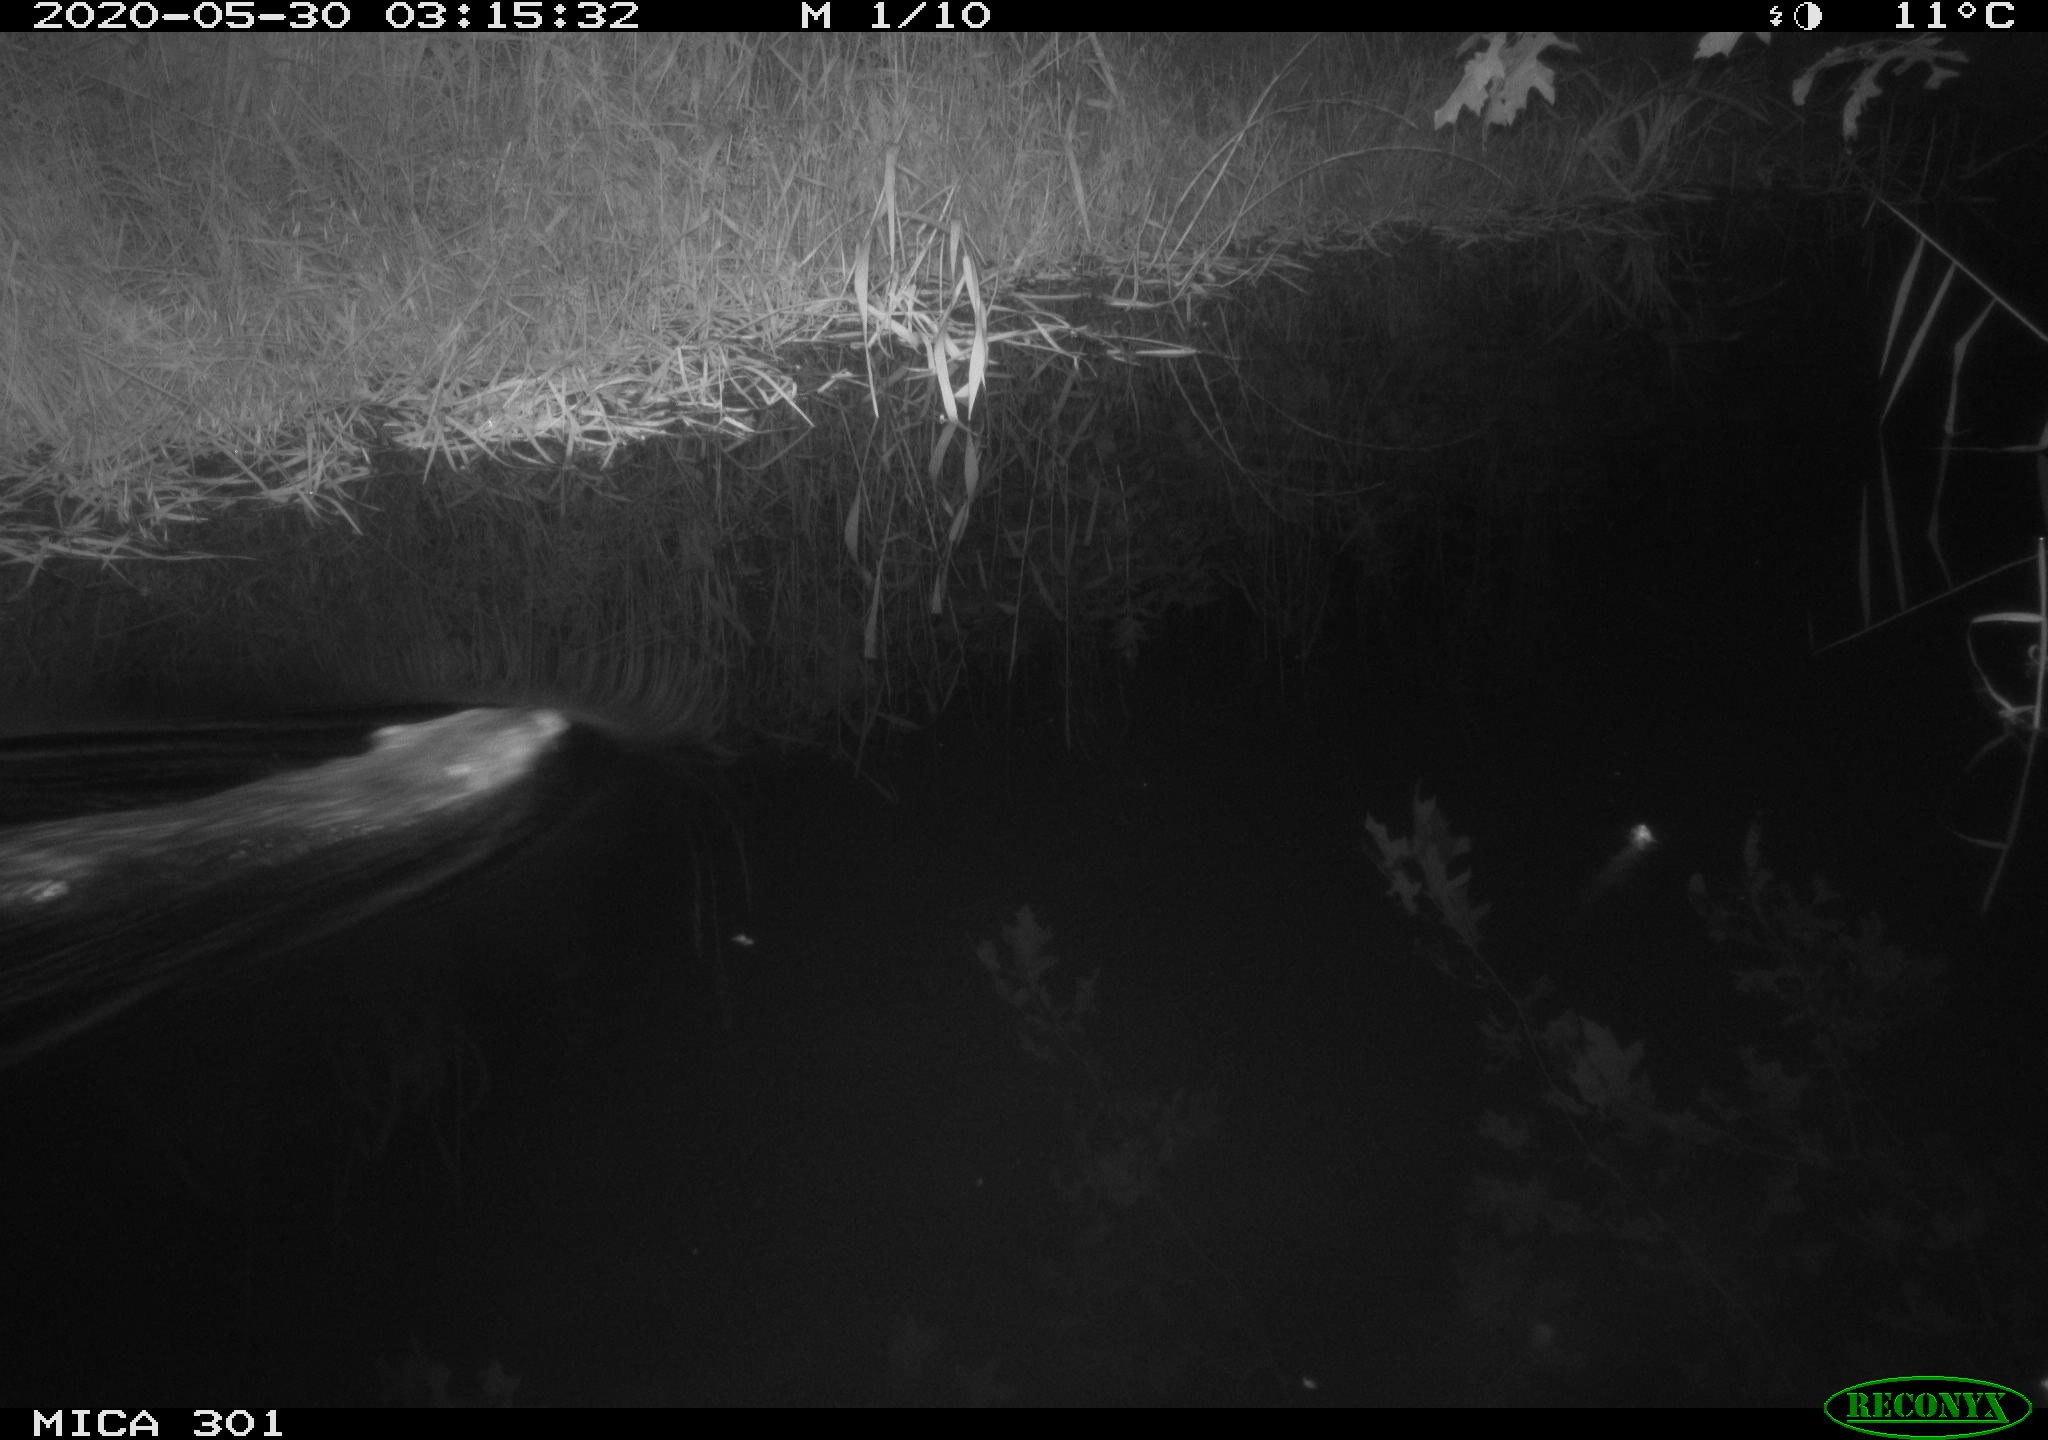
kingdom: Animalia
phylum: Chordata
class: Mammalia
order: Rodentia
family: Castoridae
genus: Castor
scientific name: Castor fiber
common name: Eurasian beaver
